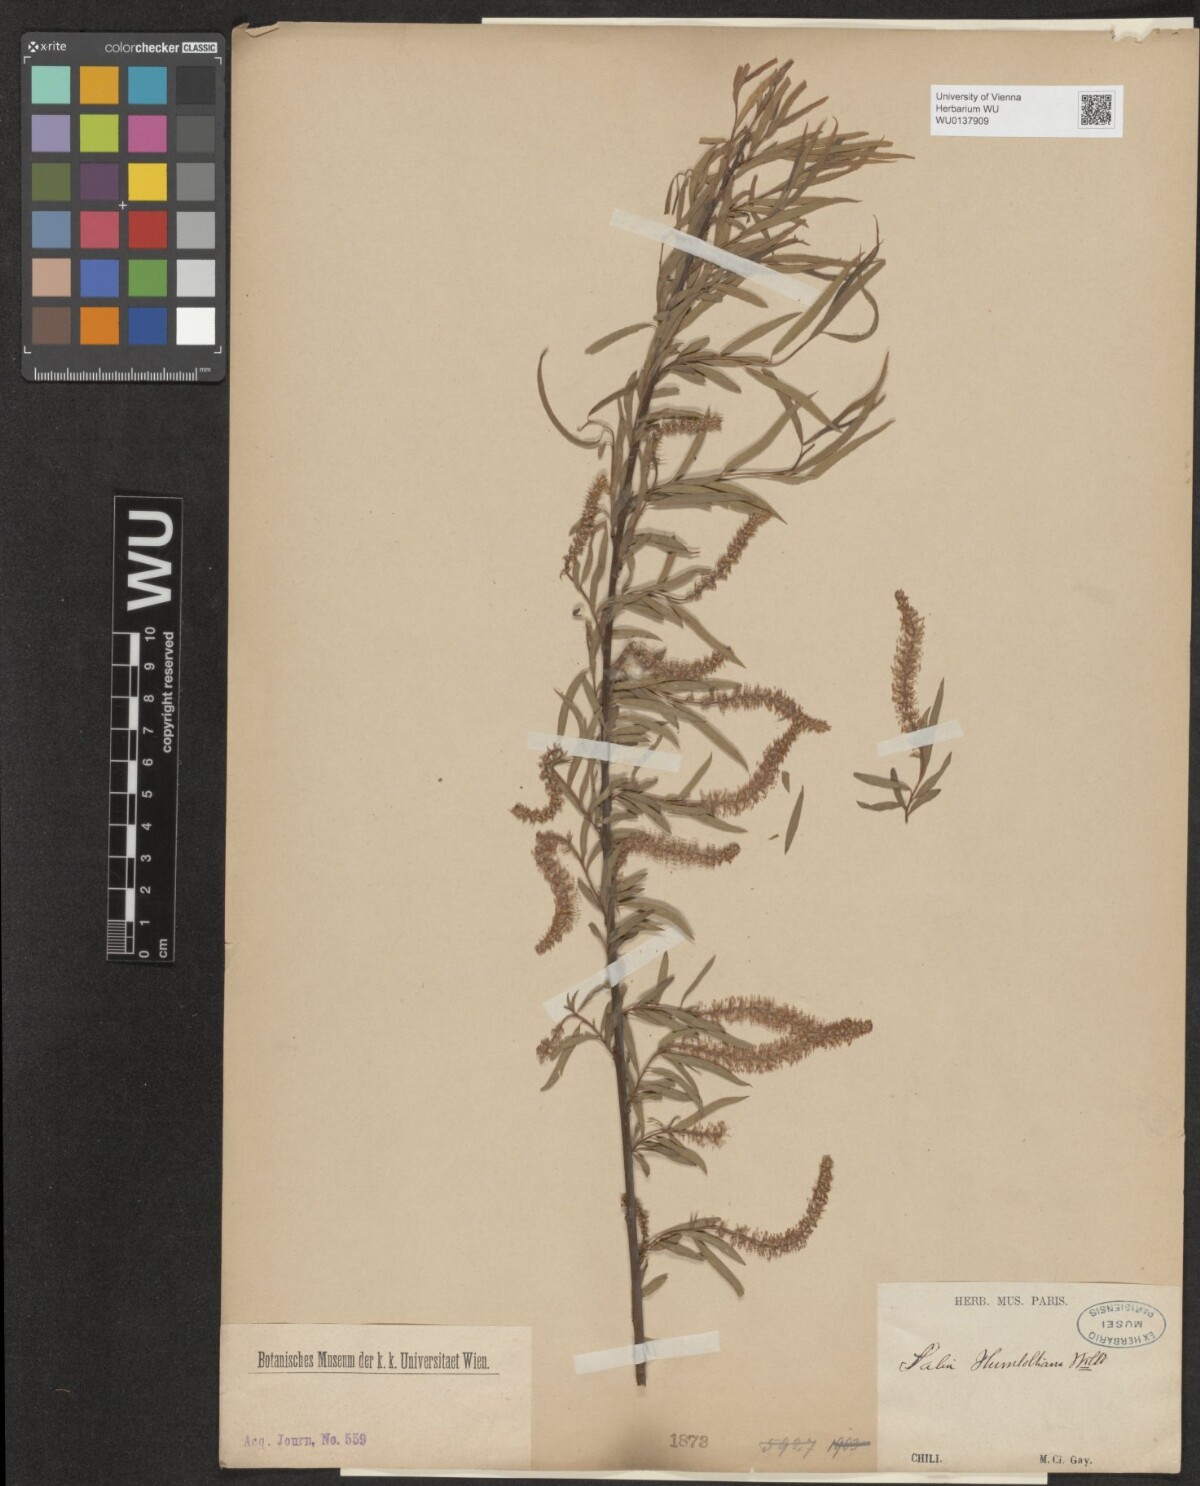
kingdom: Plantae
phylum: Tracheophyta
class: Magnoliopsida
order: Malpighiales
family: Salicaceae
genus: Salix
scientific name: Salix humboldtiana
